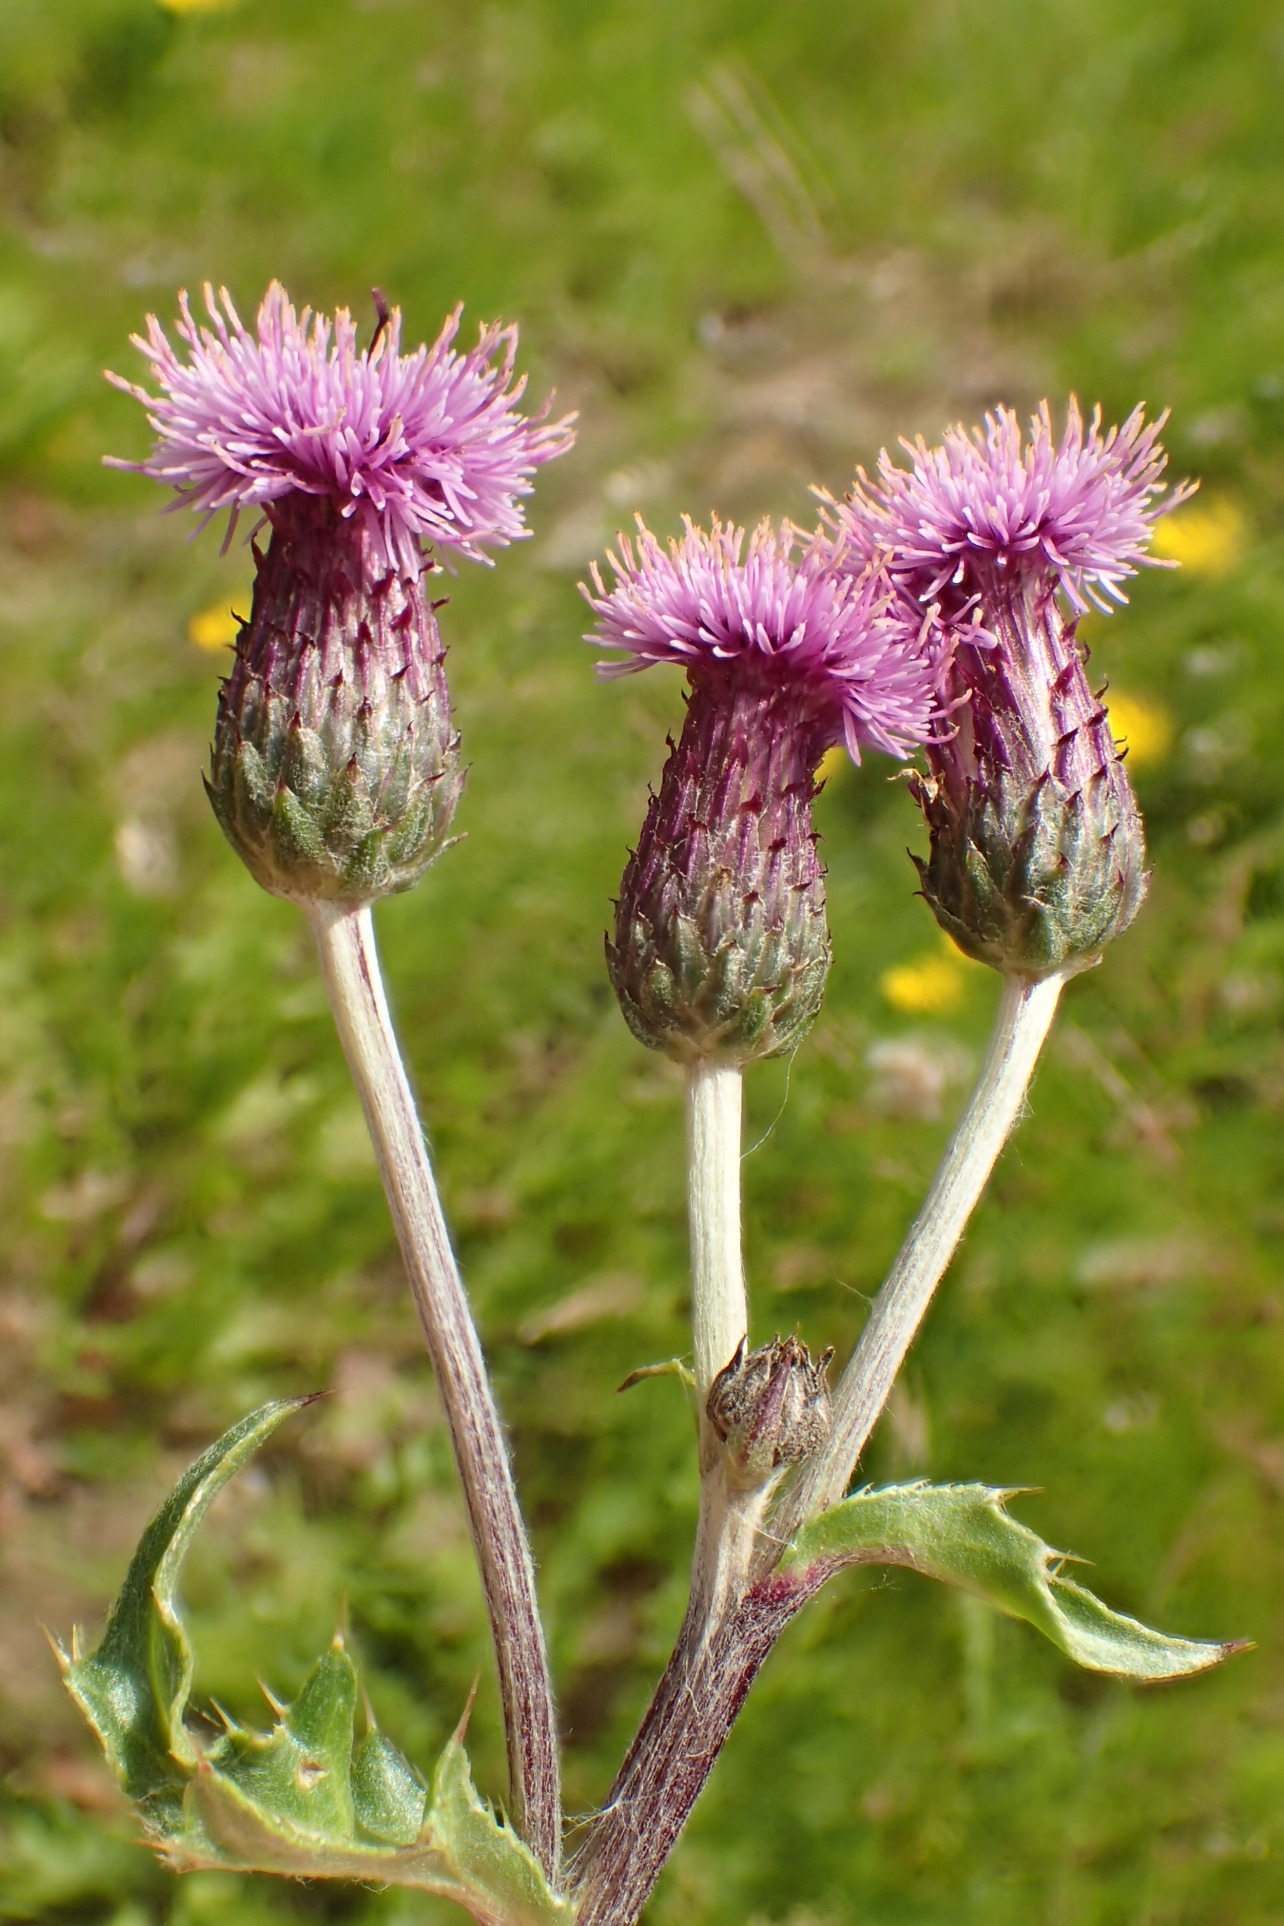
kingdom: Plantae
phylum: Tracheophyta
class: Magnoliopsida
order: Asterales
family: Asteraceae
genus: Cirsium
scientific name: Cirsium arvense
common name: Ager-tidsel
